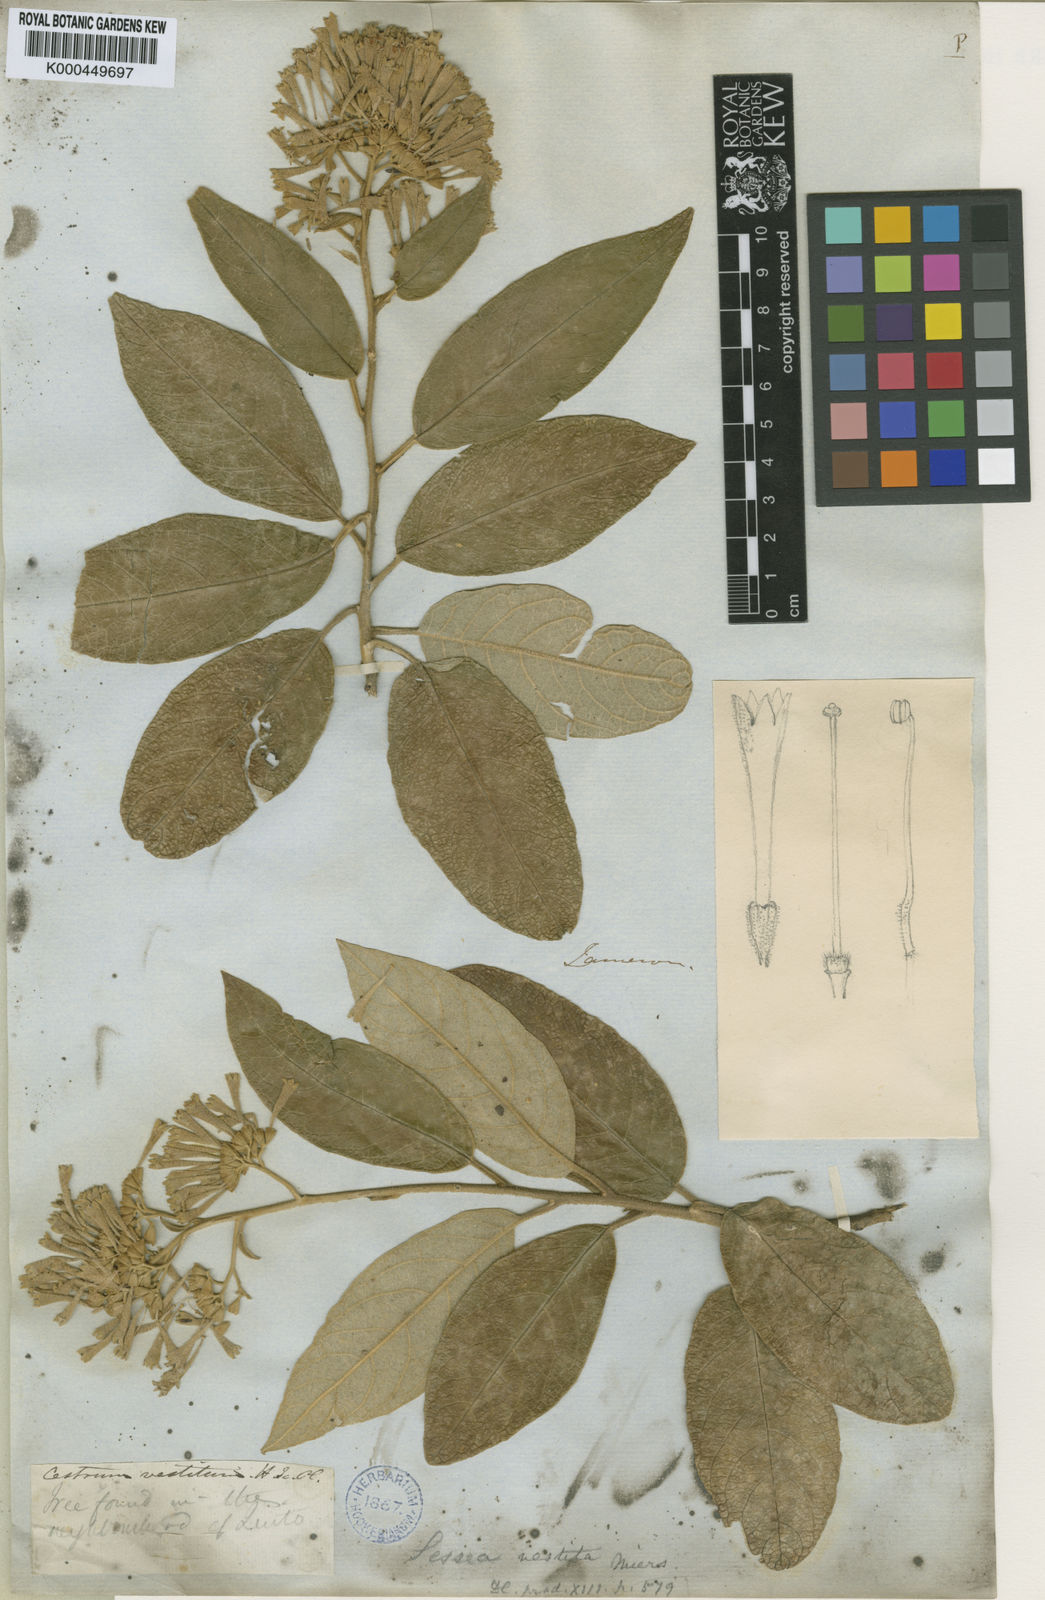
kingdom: Plantae
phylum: Tracheophyta
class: Magnoliopsida
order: Solanales
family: Solanaceae
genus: Sessea
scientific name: Sessea vestita
